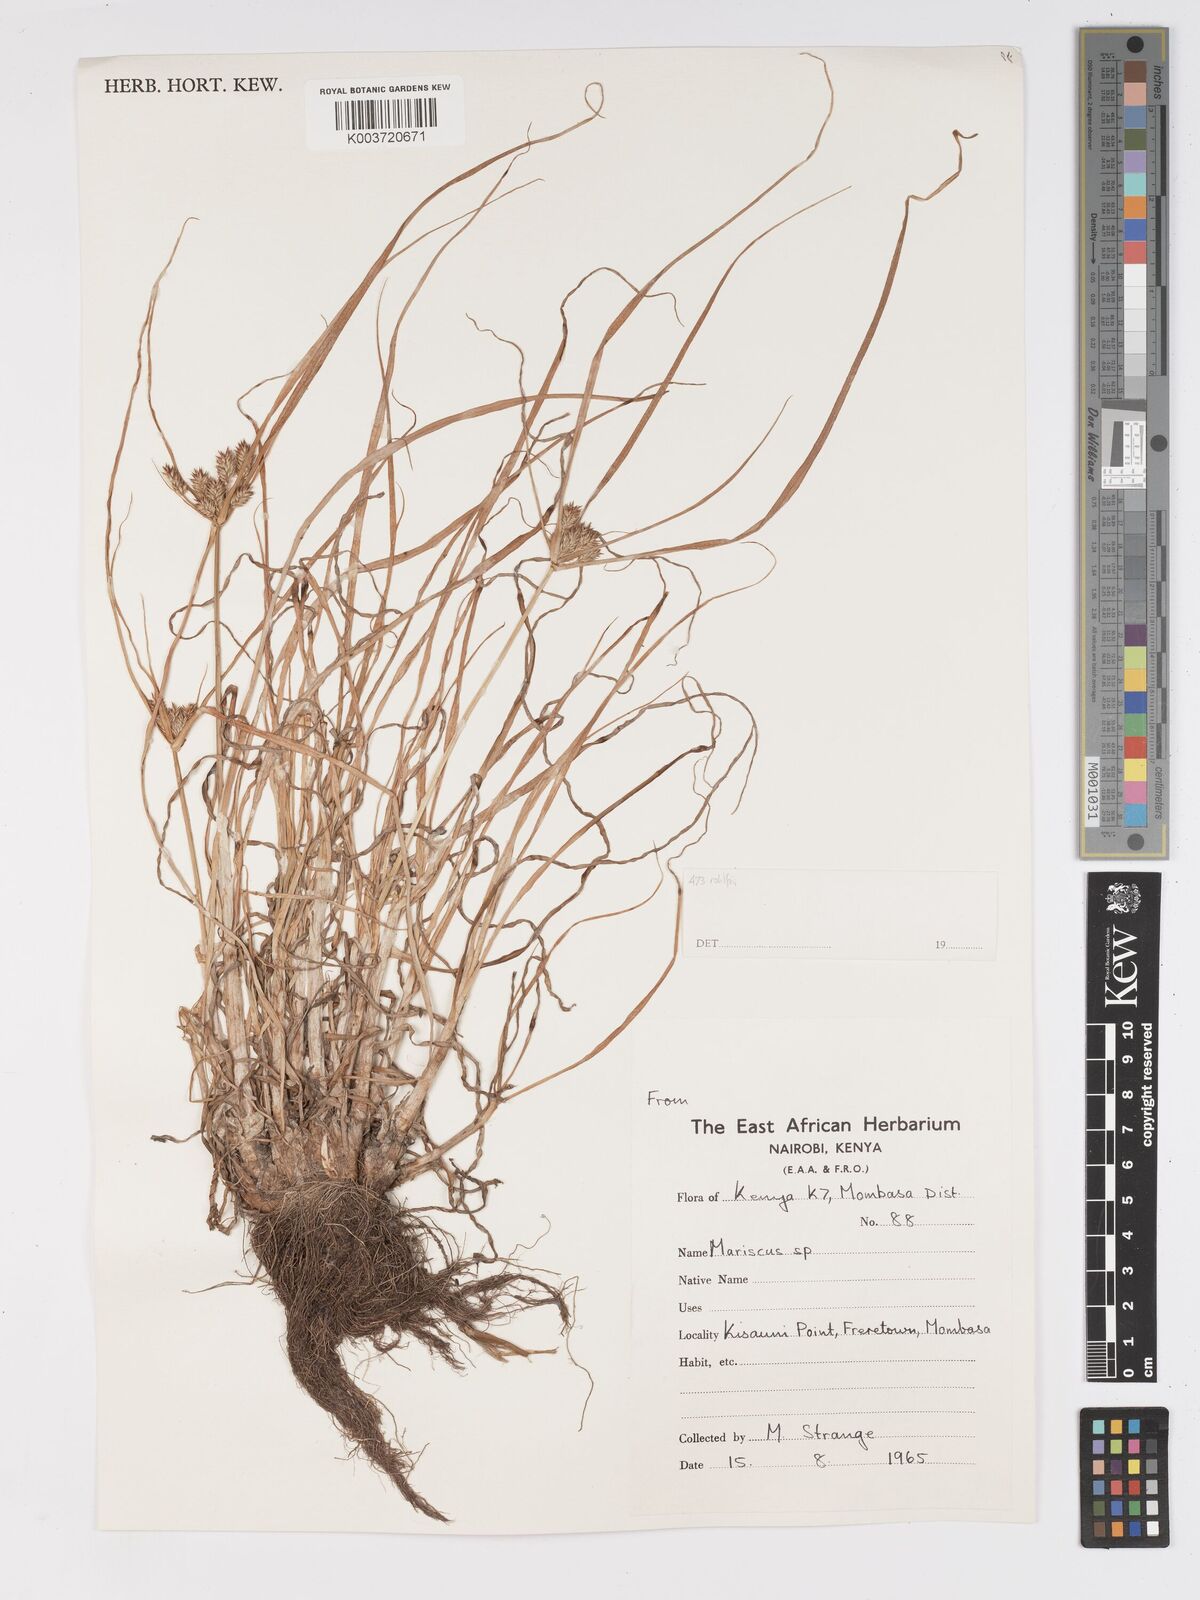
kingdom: Plantae
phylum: Tracheophyta
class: Liliopsida
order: Poales
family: Cyperaceae
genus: Cyperus
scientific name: Cyperus rohlfsii
